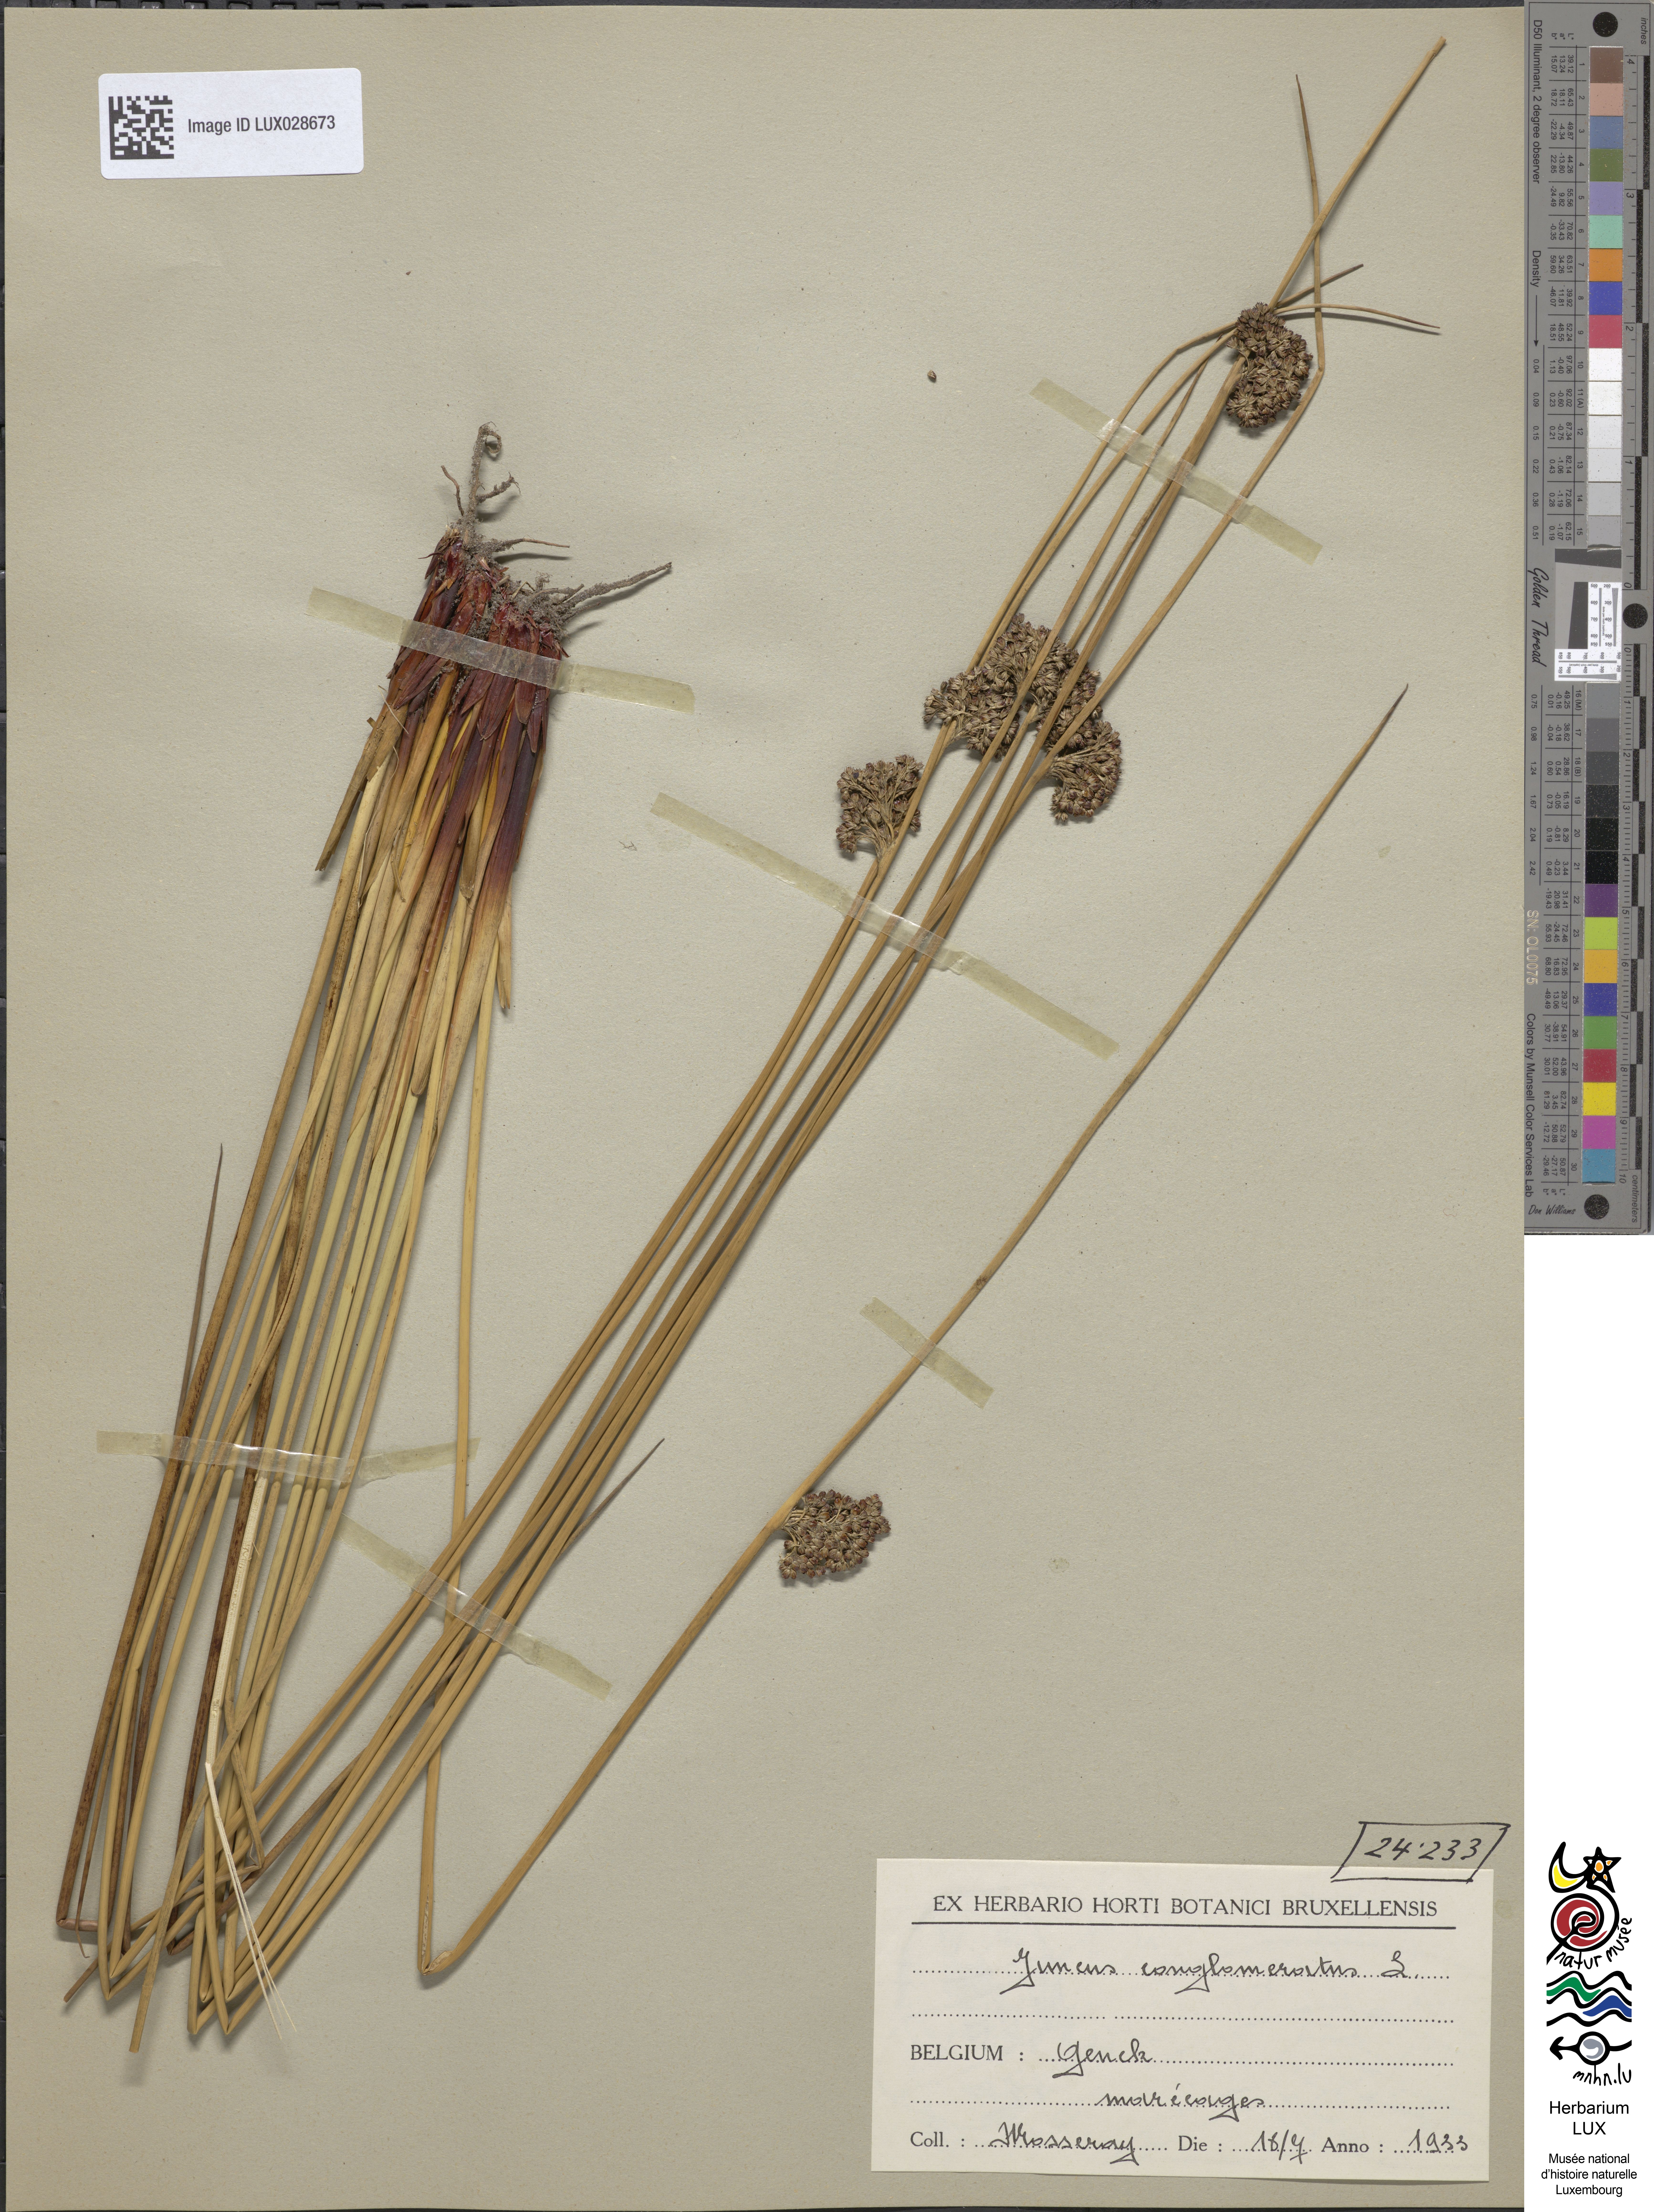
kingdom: Plantae
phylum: Tracheophyta
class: Liliopsida
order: Poales
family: Juncaceae
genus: Juncus
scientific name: Juncus conglomeratus
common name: Compact rush
